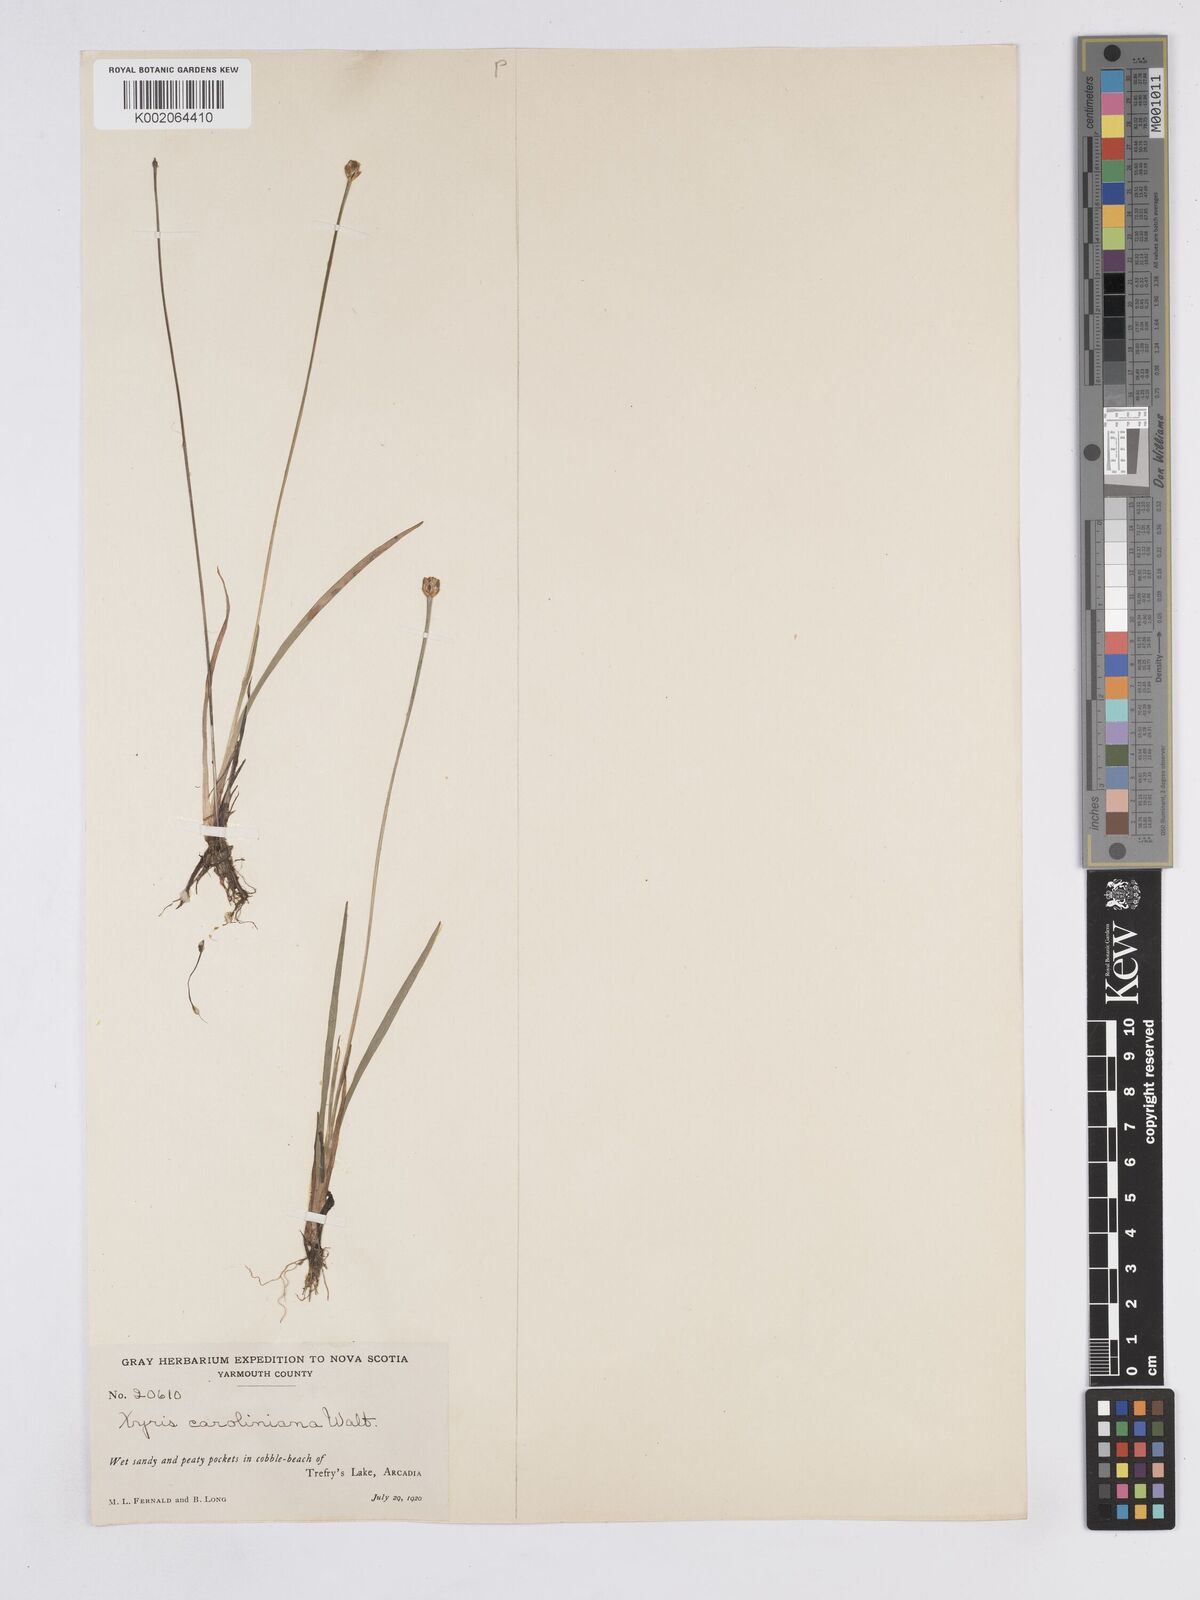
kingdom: Plantae
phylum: Tracheophyta
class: Liliopsida
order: Poales
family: Xyridaceae
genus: Xyris
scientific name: Xyris caroliniana
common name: Carolina yellow-eyed-grass
